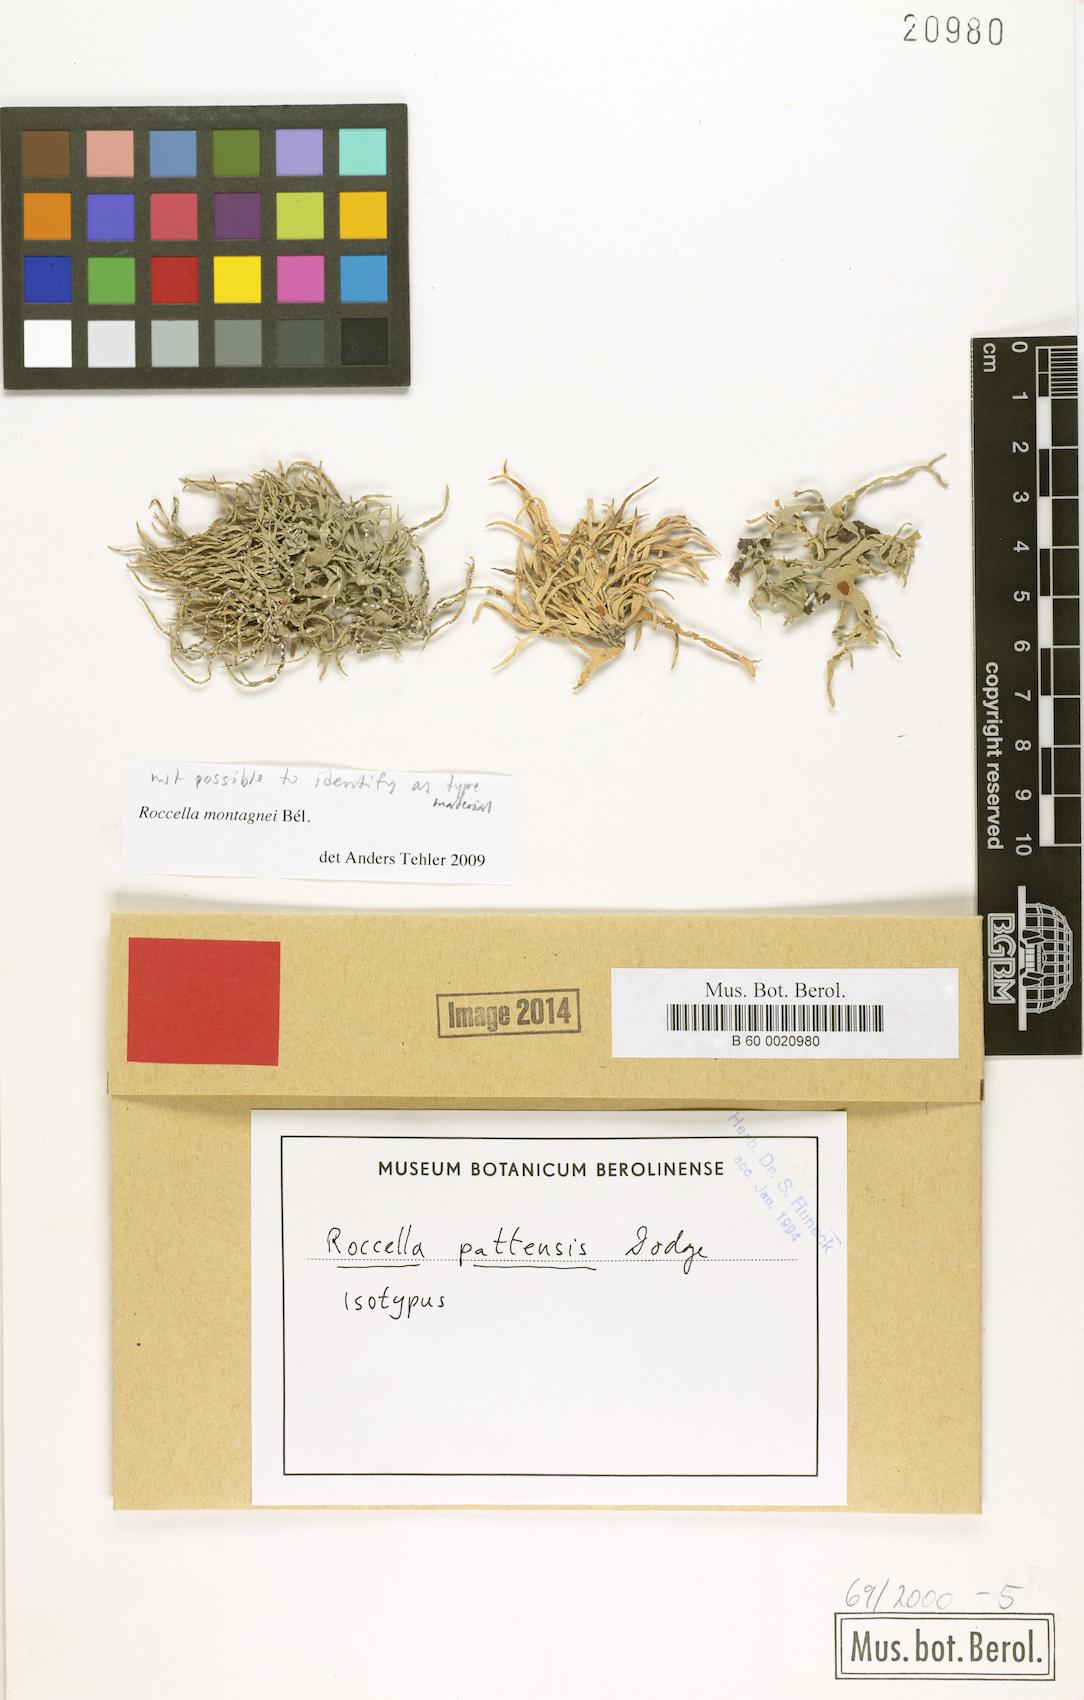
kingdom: Fungi
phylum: Ascomycota
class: Arthoniomycetes
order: Arthoniales
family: Roccellaceae
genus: Roccella
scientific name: Roccella linearis
